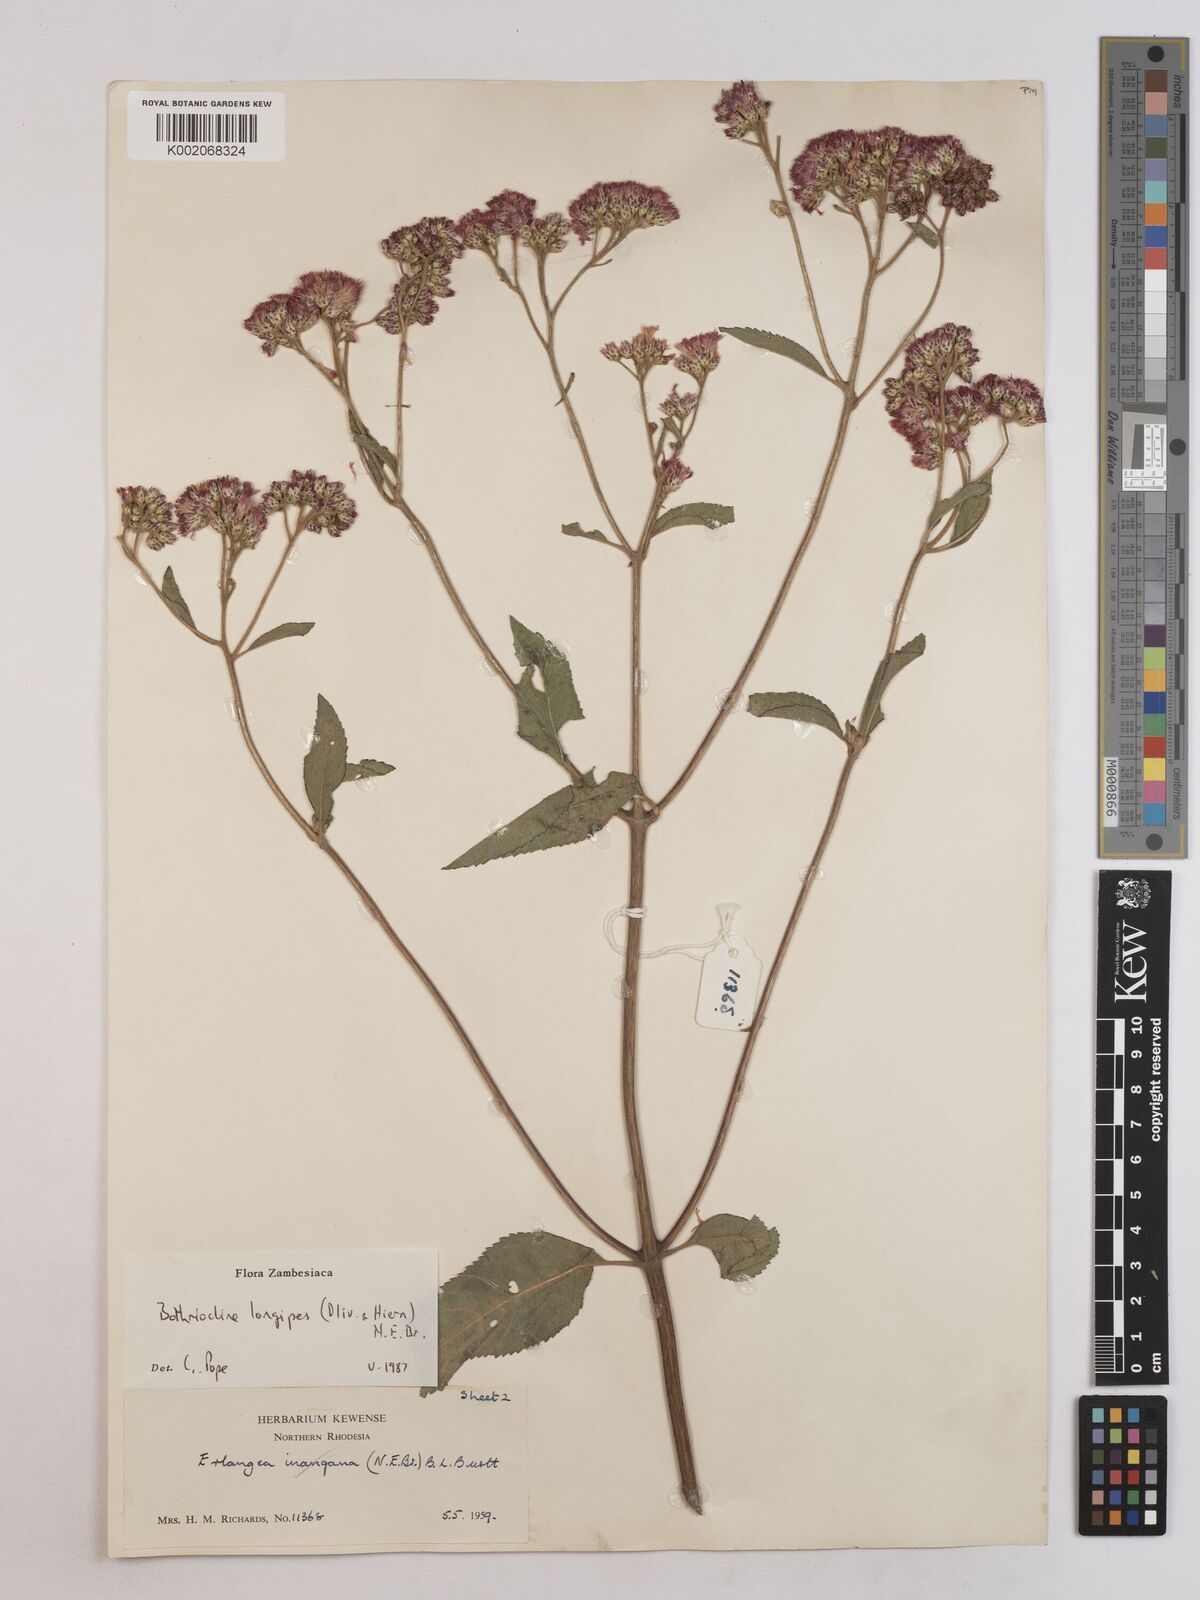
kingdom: Plantae
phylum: Tracheophyta
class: Magnoliopsida
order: Asterales
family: Asteraceae
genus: Bothriocline
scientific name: Bothriocline longipes
